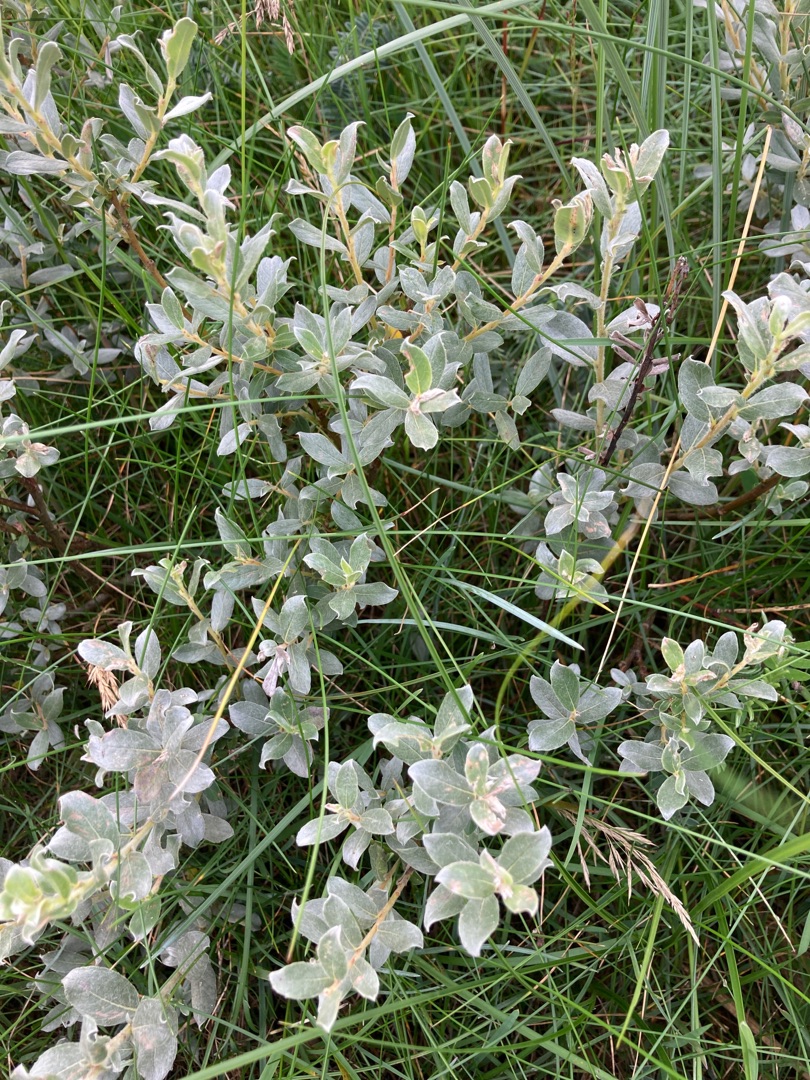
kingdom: Plantae
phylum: Tracheophyta
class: Magnoliopsida
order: Malpighiales
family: Salicaceae
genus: Salix
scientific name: Salix repens
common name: Gråris
